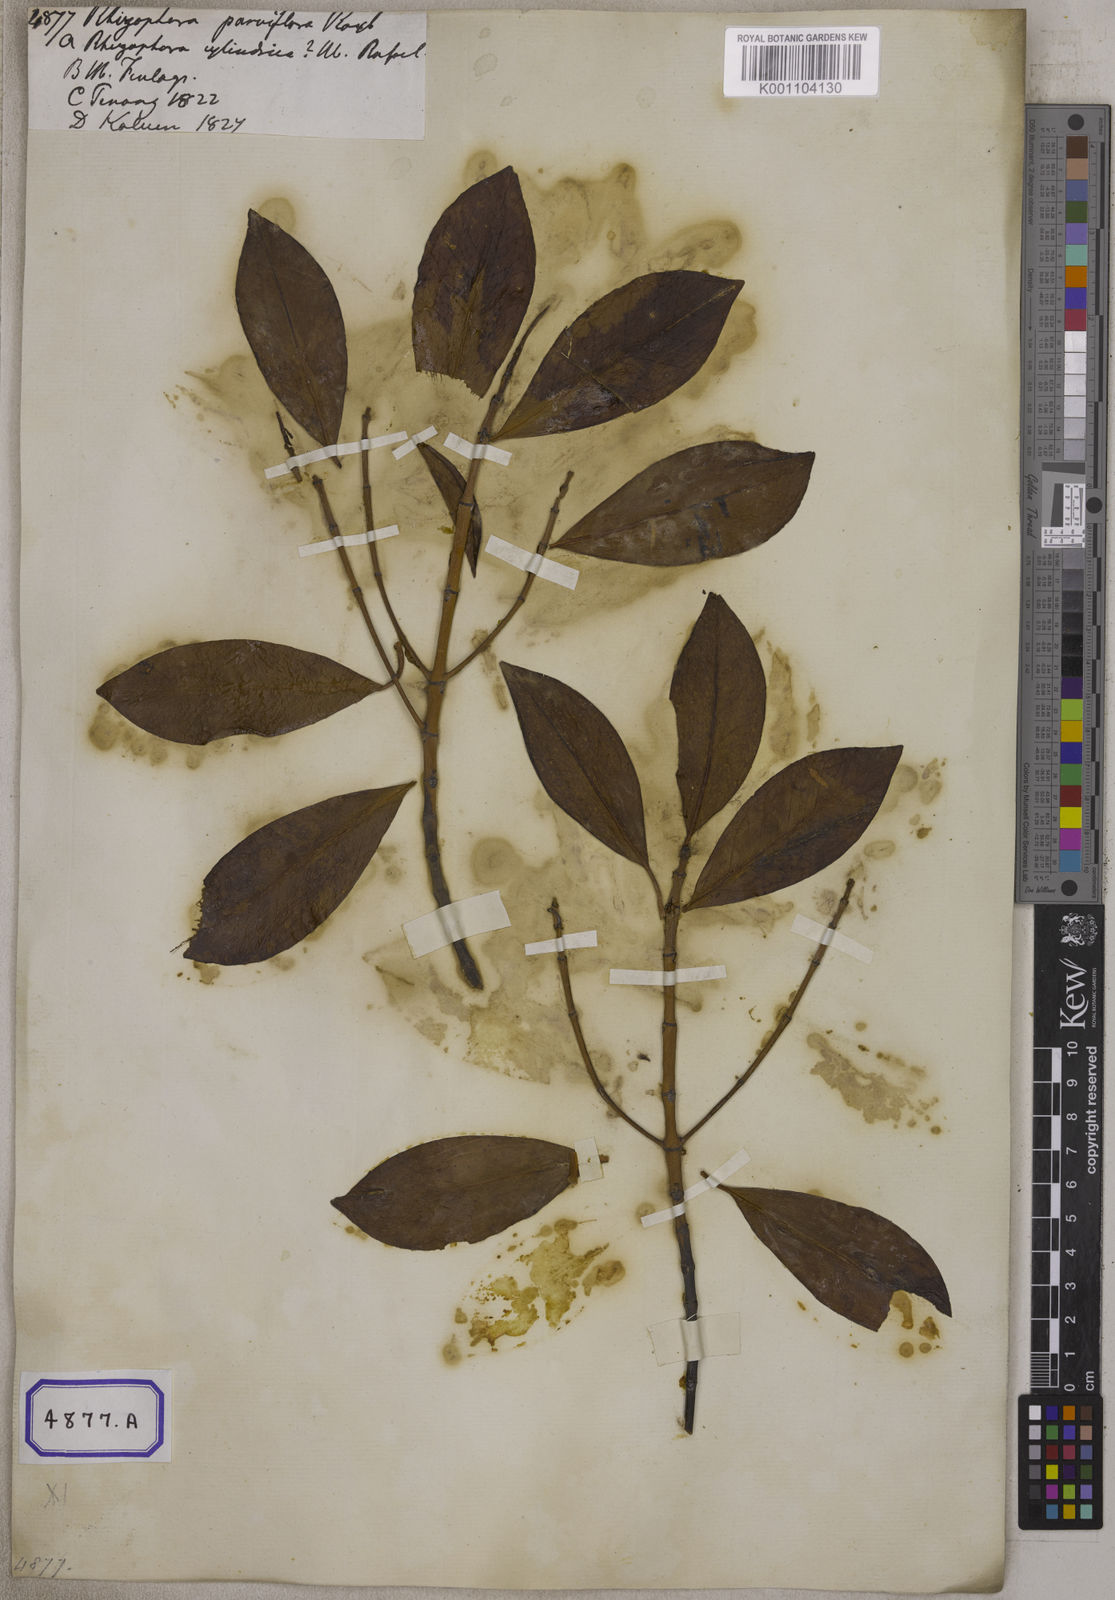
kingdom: Plantae
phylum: Tracheophyta
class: Magnoliopsida
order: Malpighiales
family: Rhizophoraceae
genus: Bruguiera
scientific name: Bruguiera parviflora
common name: Smallflower bruguiera
